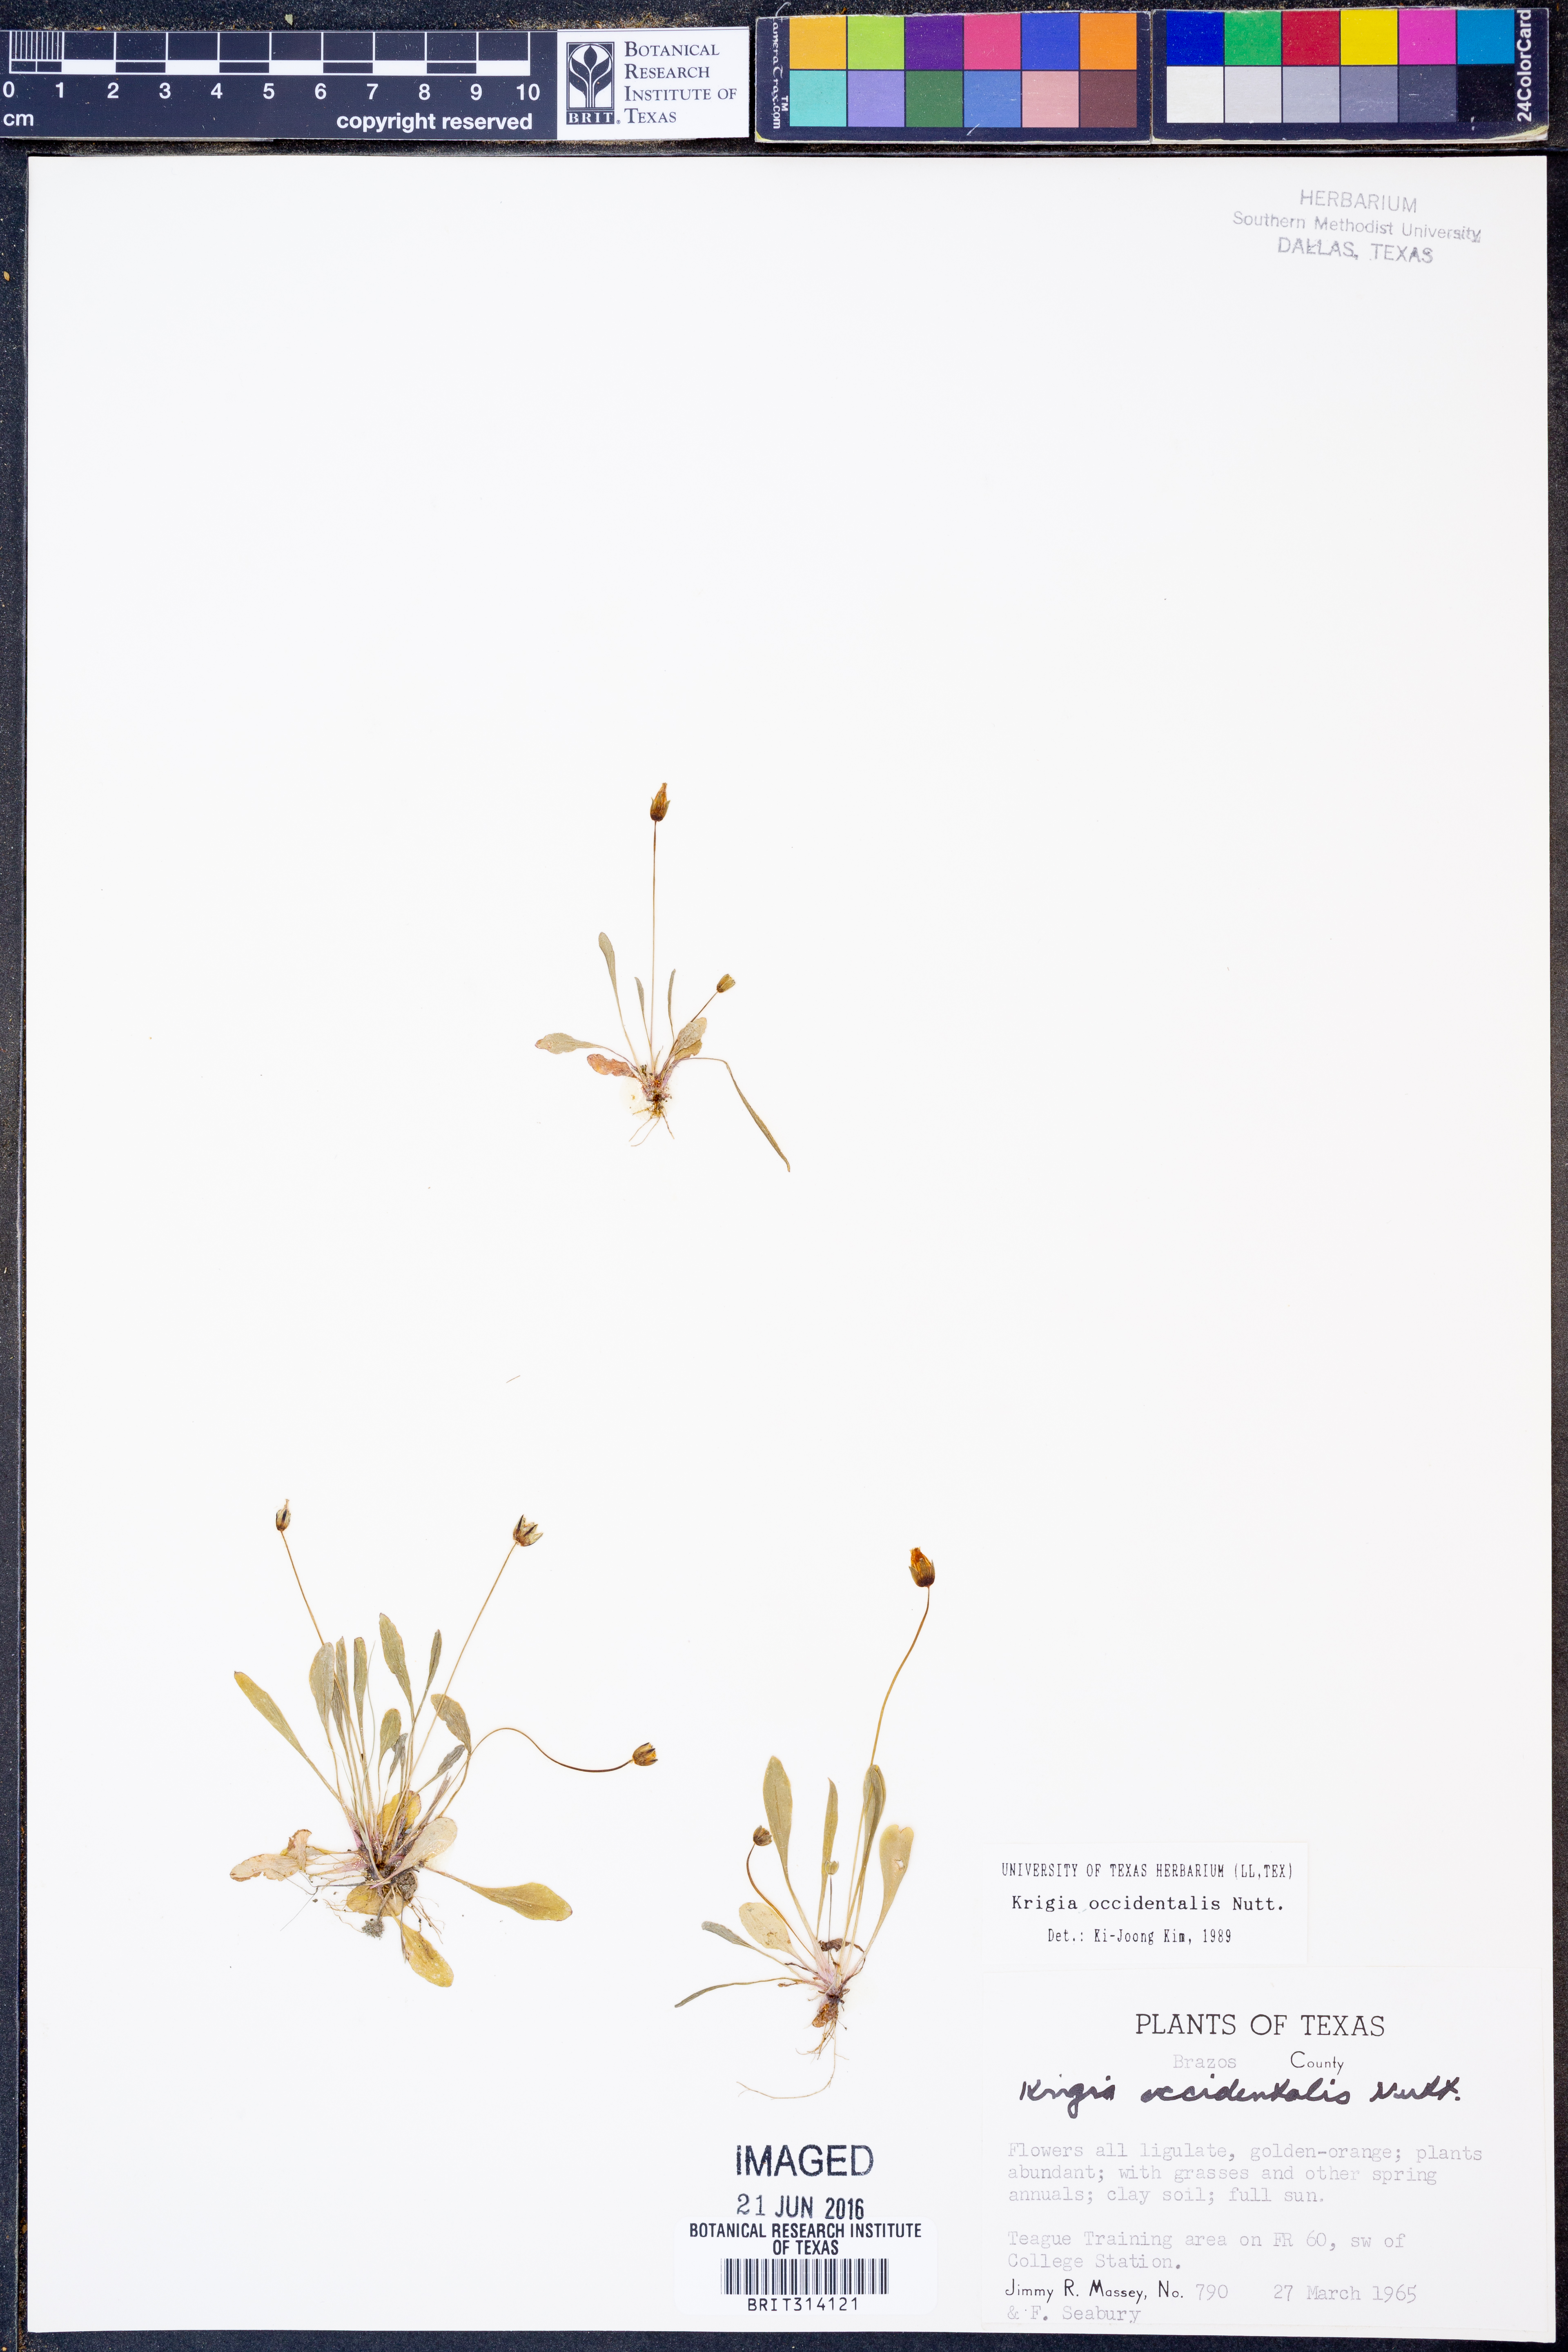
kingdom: Plantae
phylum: Tracheophyta
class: Magnoliopsida
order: Asterales
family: Asteraceae
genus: Krigia
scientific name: Krigia occidentalis
